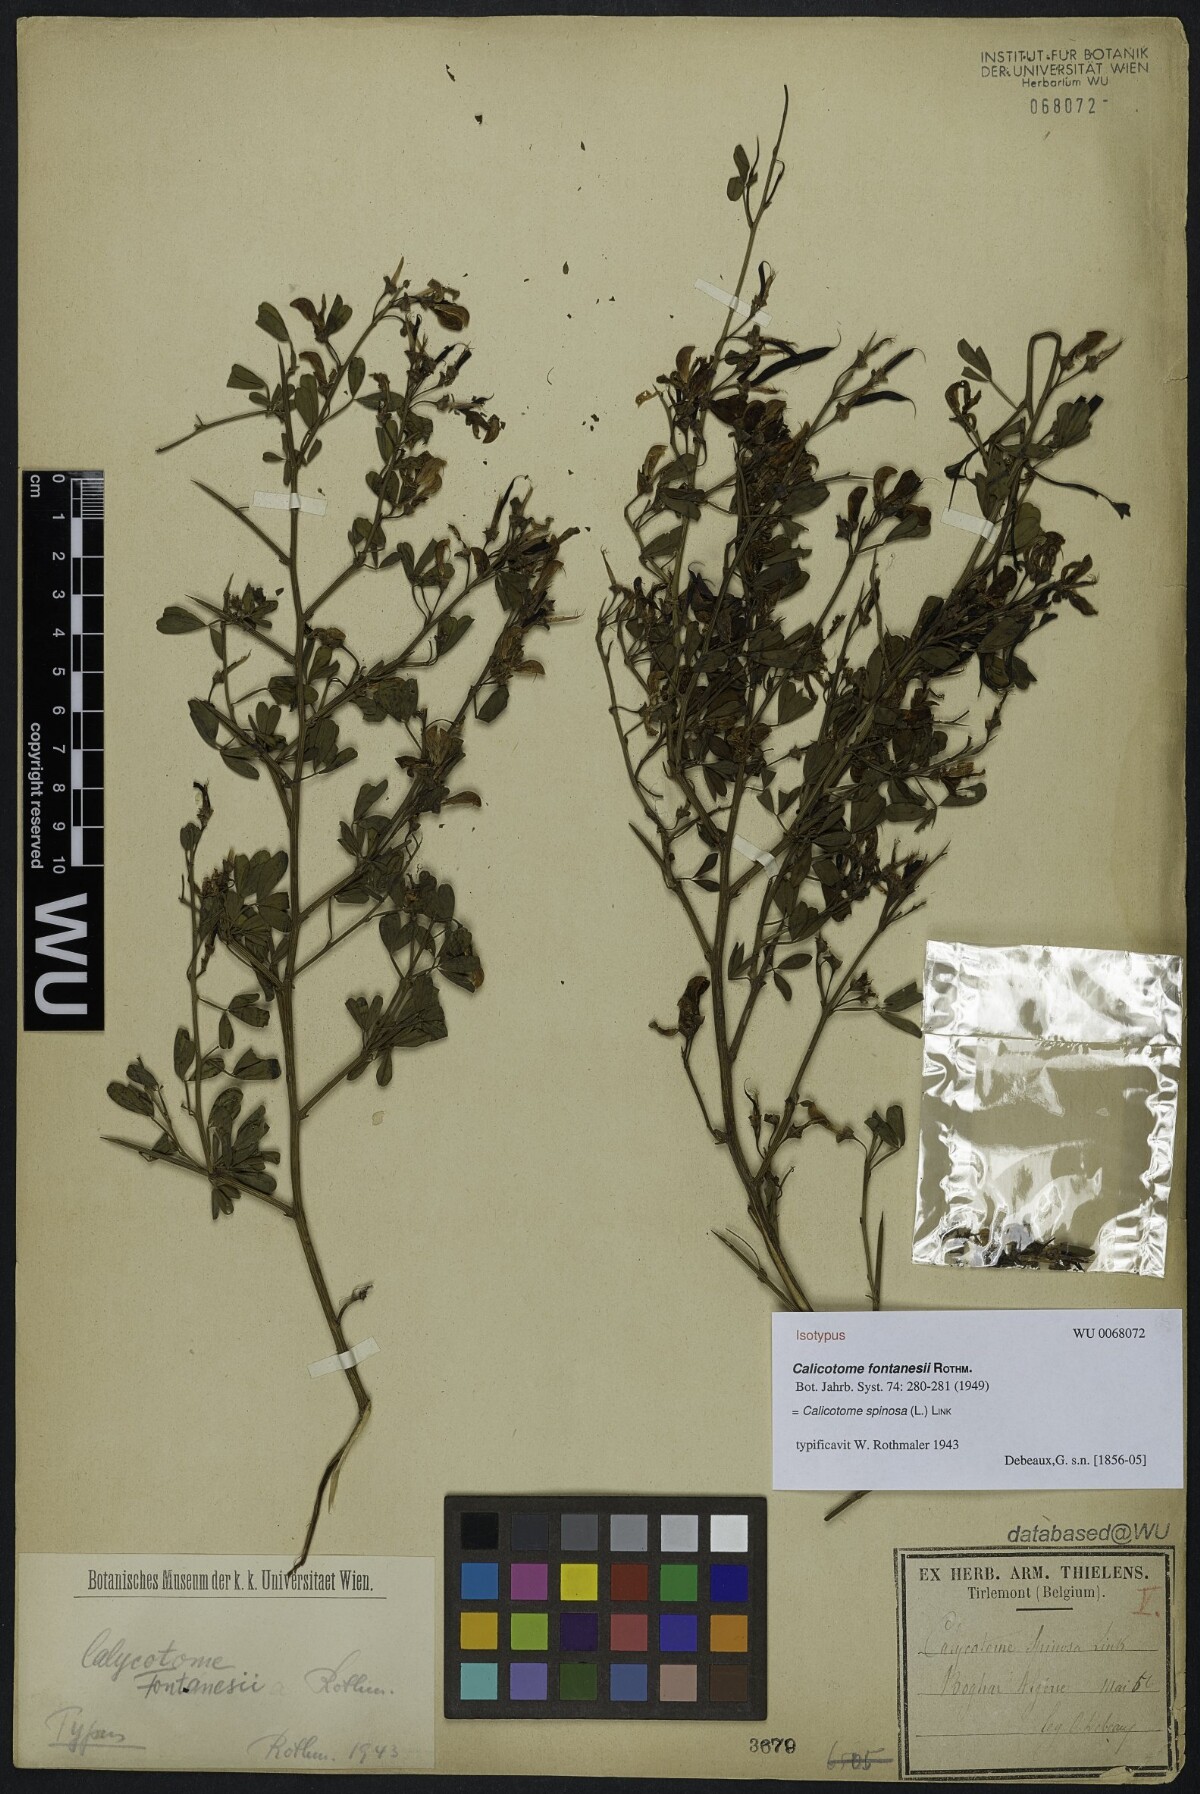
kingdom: Plantae
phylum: Tracheophyta
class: Magnoliopsida
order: Fabales
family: Fabaceae
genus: Calicotome
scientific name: Calicotome spinosa
